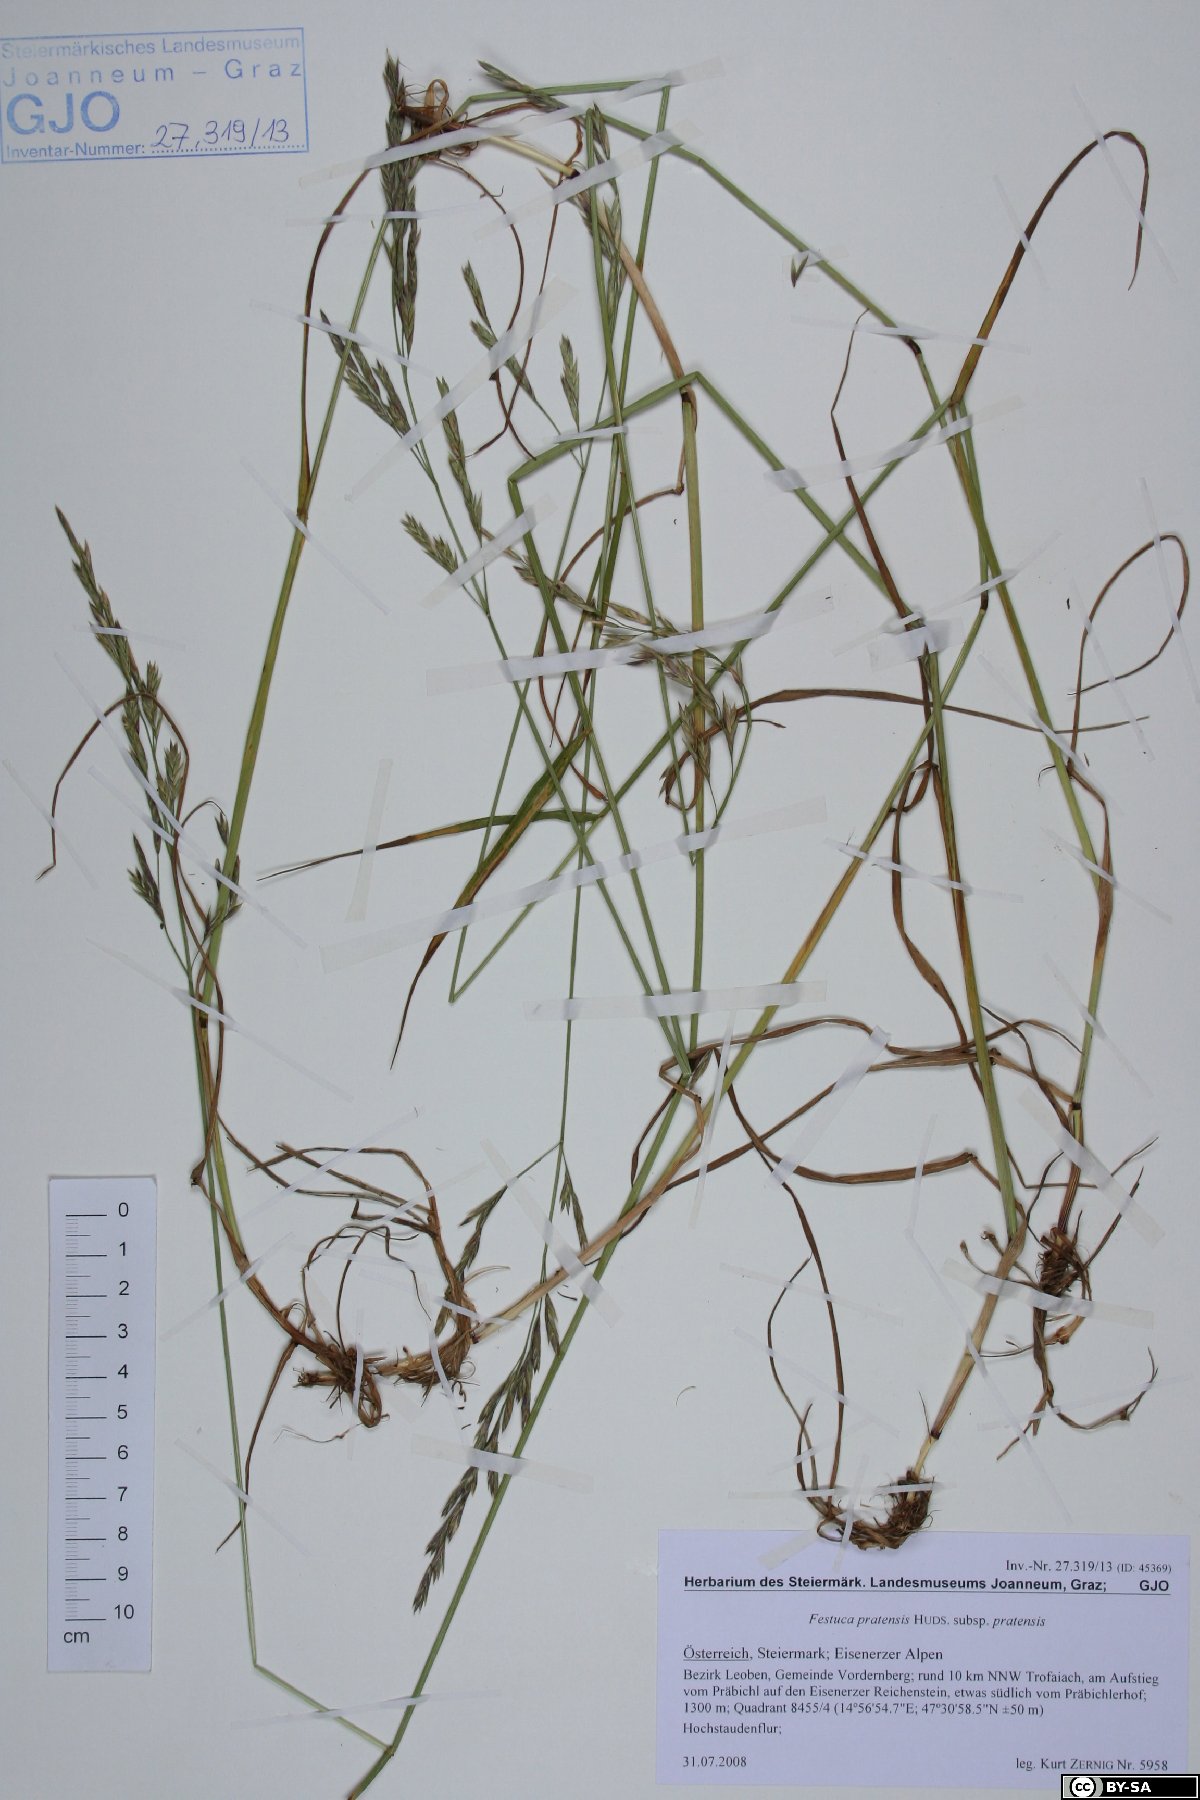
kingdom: Plantae
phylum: Tracheophyta
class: Liliopsida
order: Poales
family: Poaceae
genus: Lolium
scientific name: Lolium pratense
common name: Dover grass
